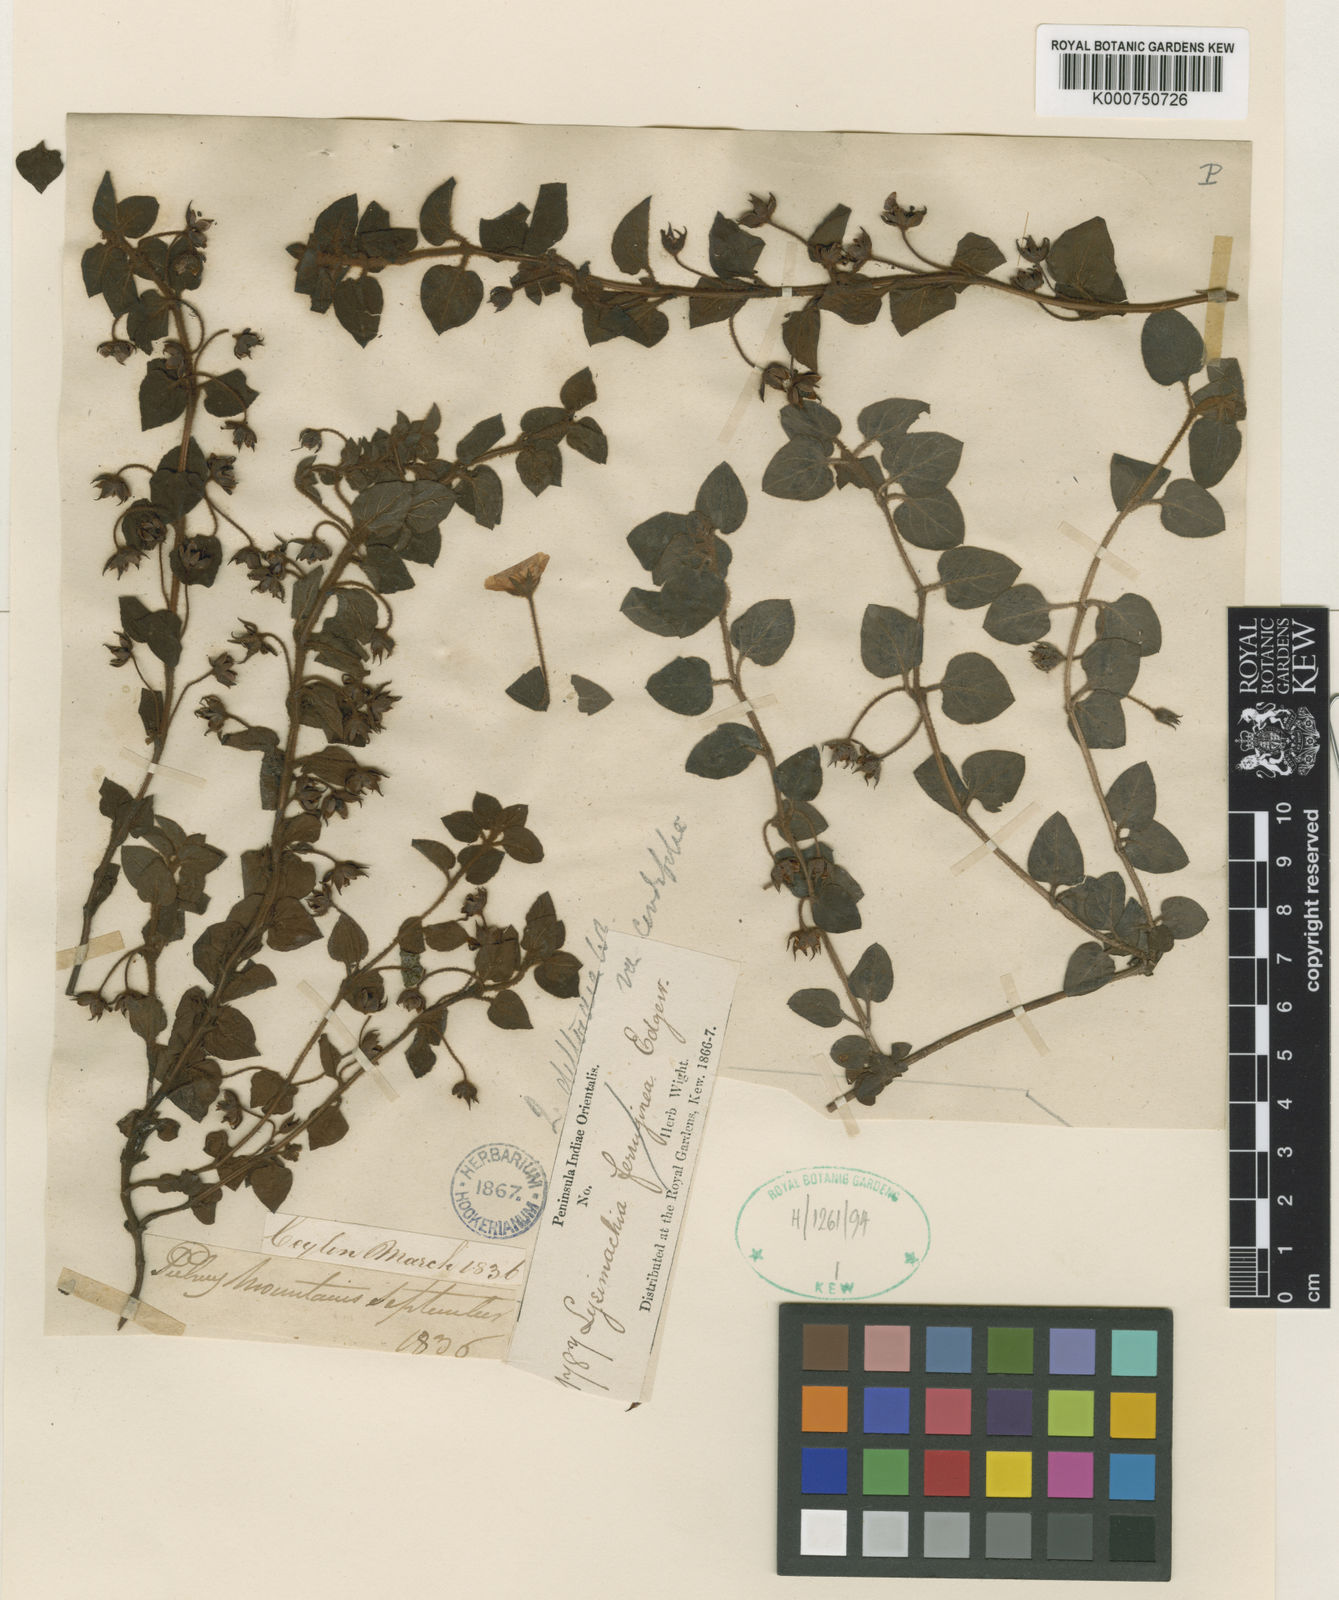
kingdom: Plantae
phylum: Tracheophyta
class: Magnoliopsida
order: Ericales
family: Primulaceae
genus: Lysimachia
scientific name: Lysimachia deltoidea
